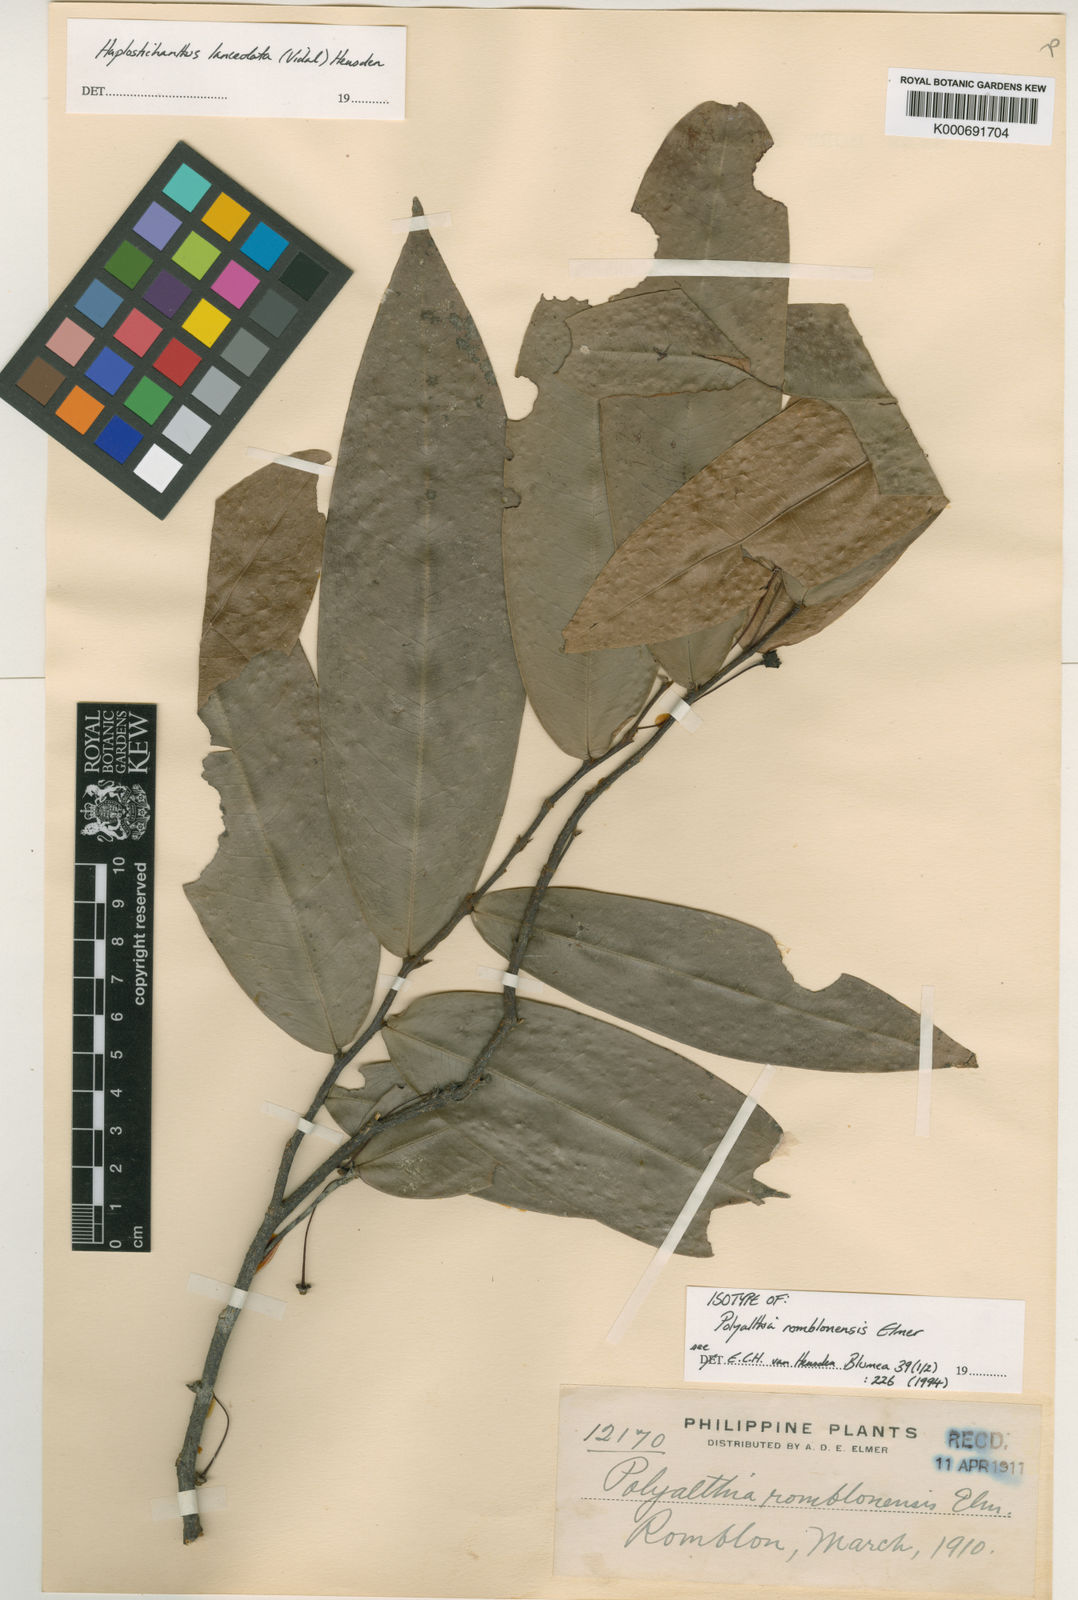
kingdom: Plantae
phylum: Tracheophyta
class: Magnoliopsida
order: Magnoliales
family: Annonaceae
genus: Papualthia
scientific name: Papualthia
